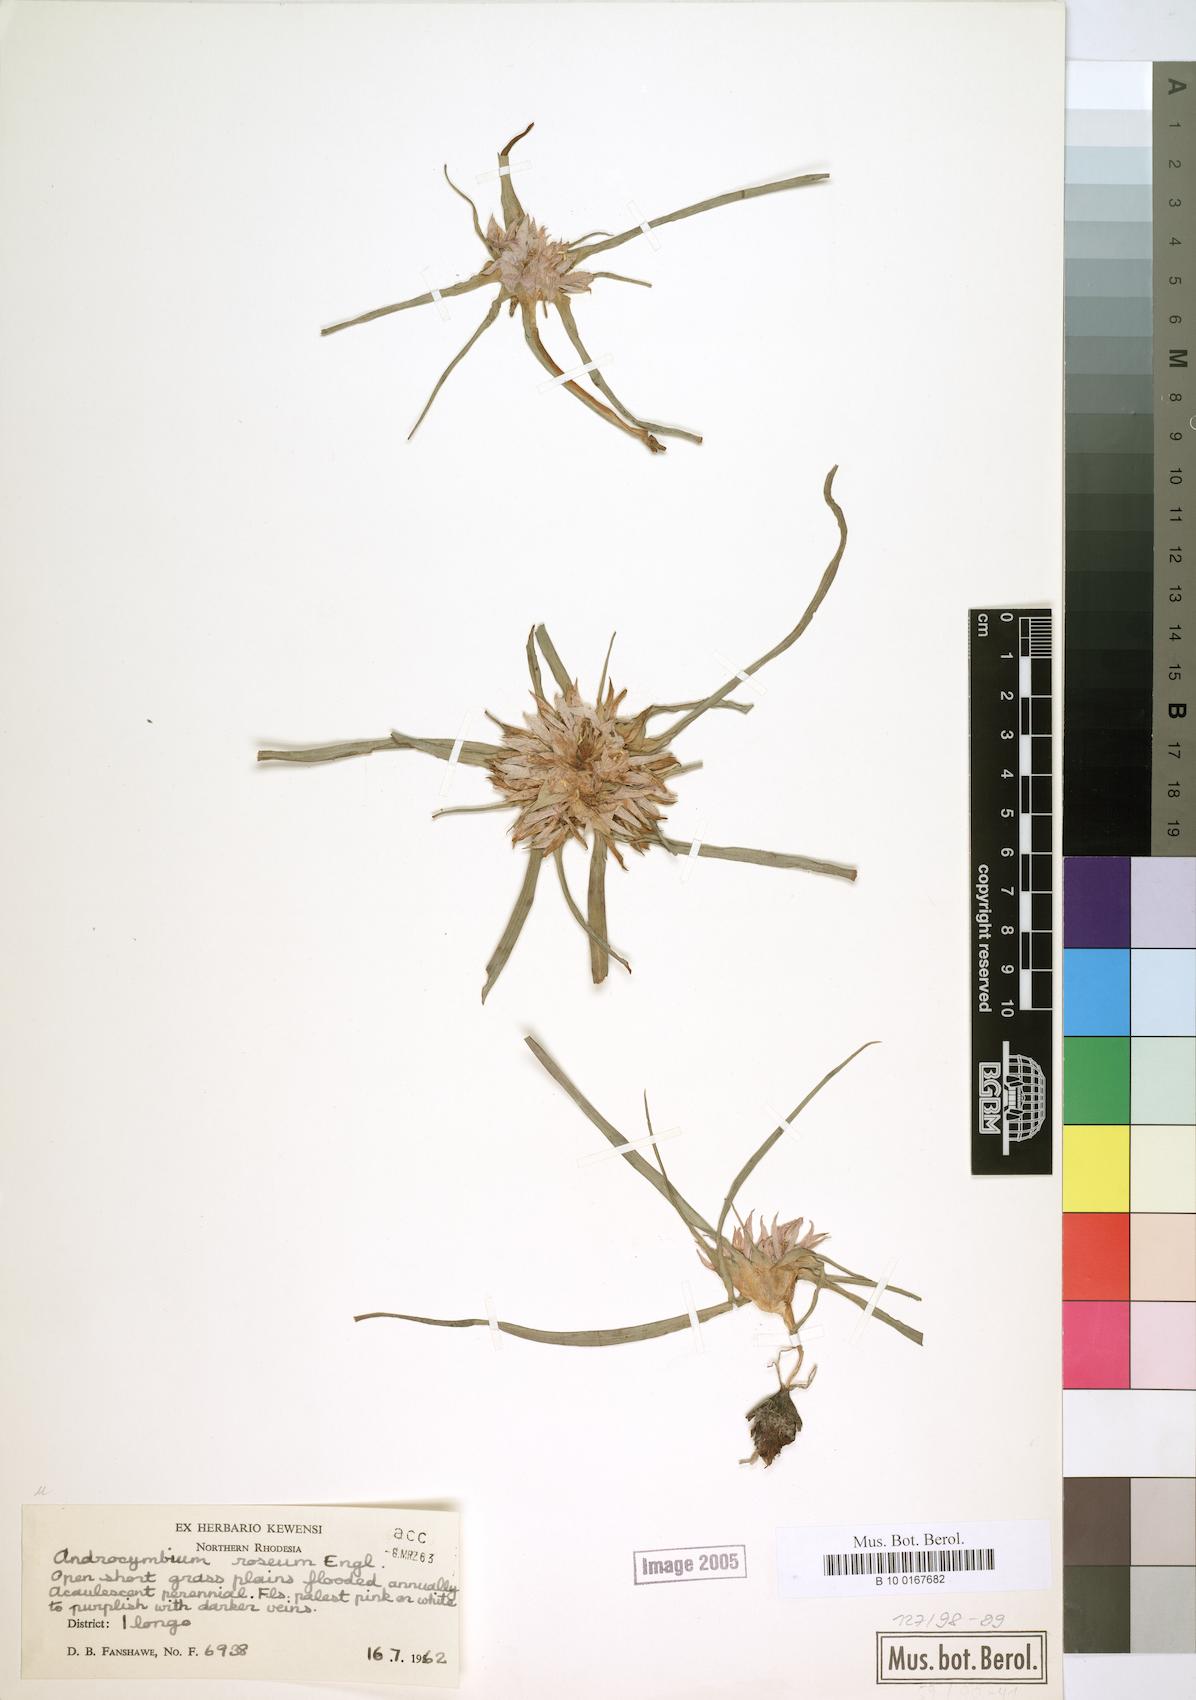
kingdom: Plantae
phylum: Tracheophyta
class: Liliopsida
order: Liliales
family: Colchicaceae
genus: Colchicum
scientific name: Colchicum roseum
